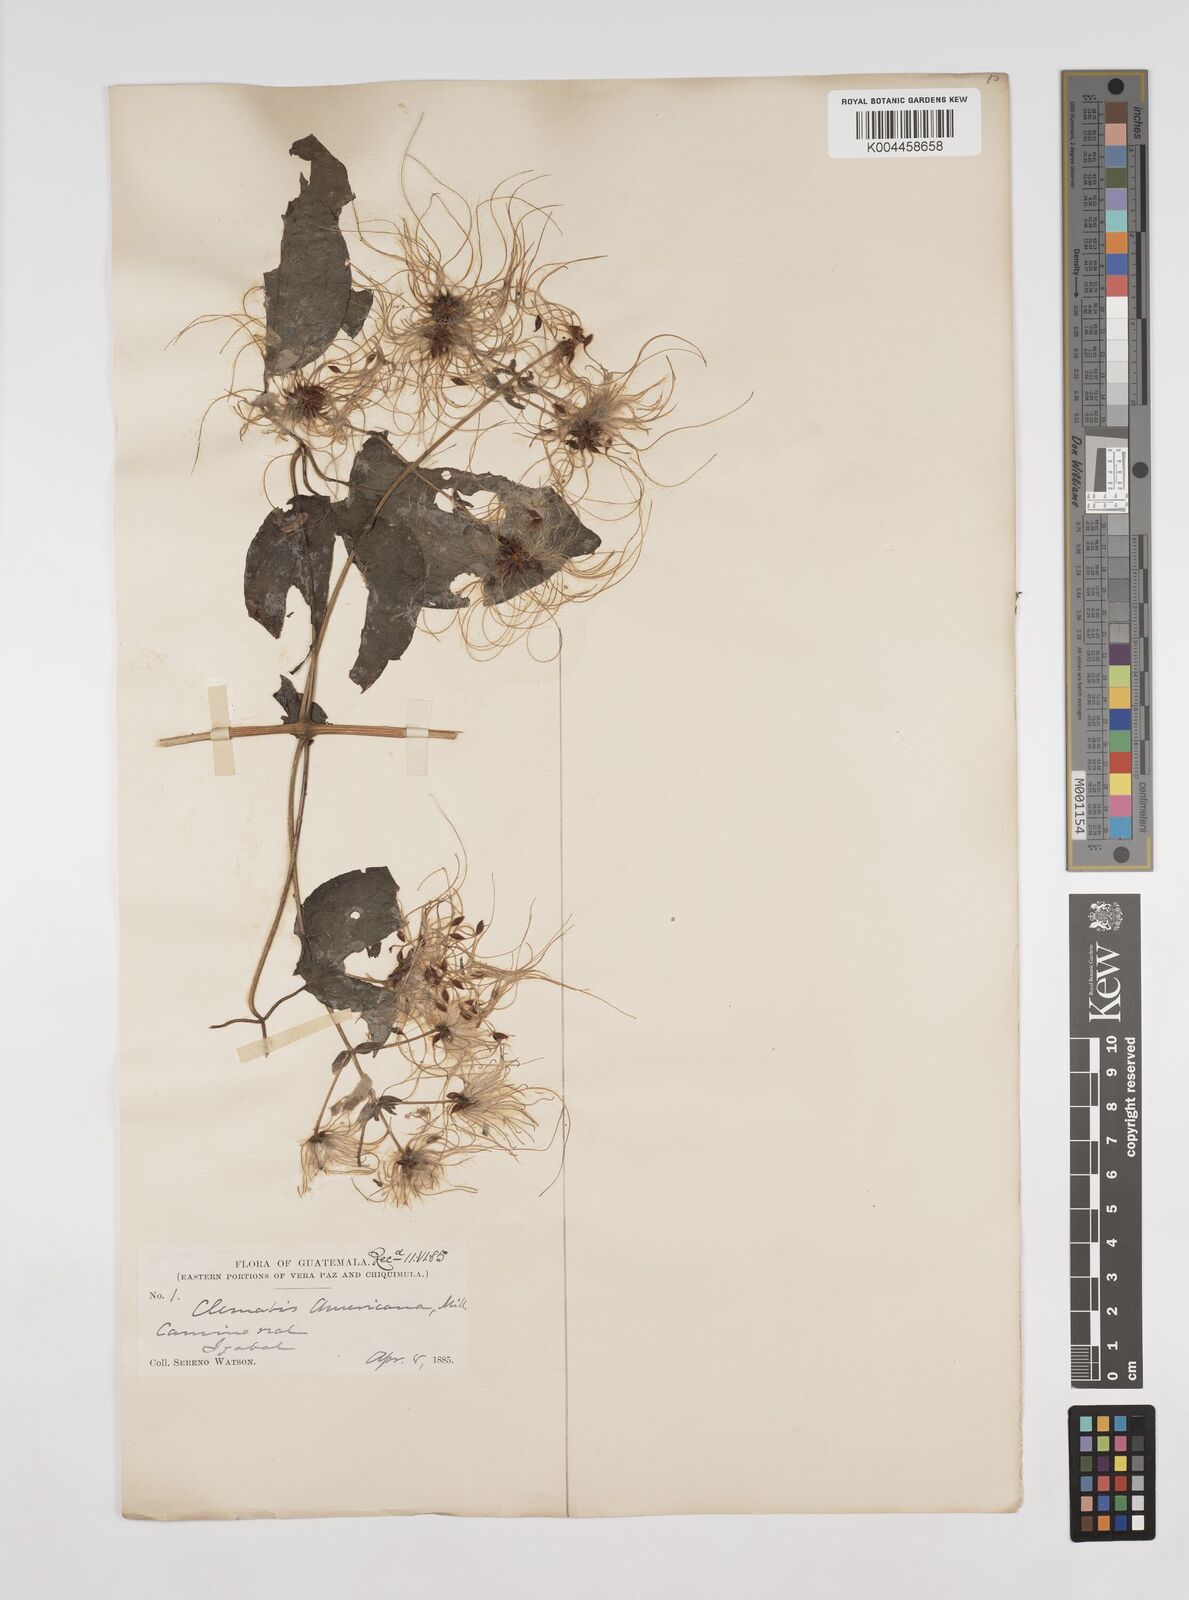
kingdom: Plantae
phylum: Tracheophyta
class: Magnoliopsida
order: Ranunculales
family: Ranunculaceae
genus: Clematis
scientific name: Clematis dioica
